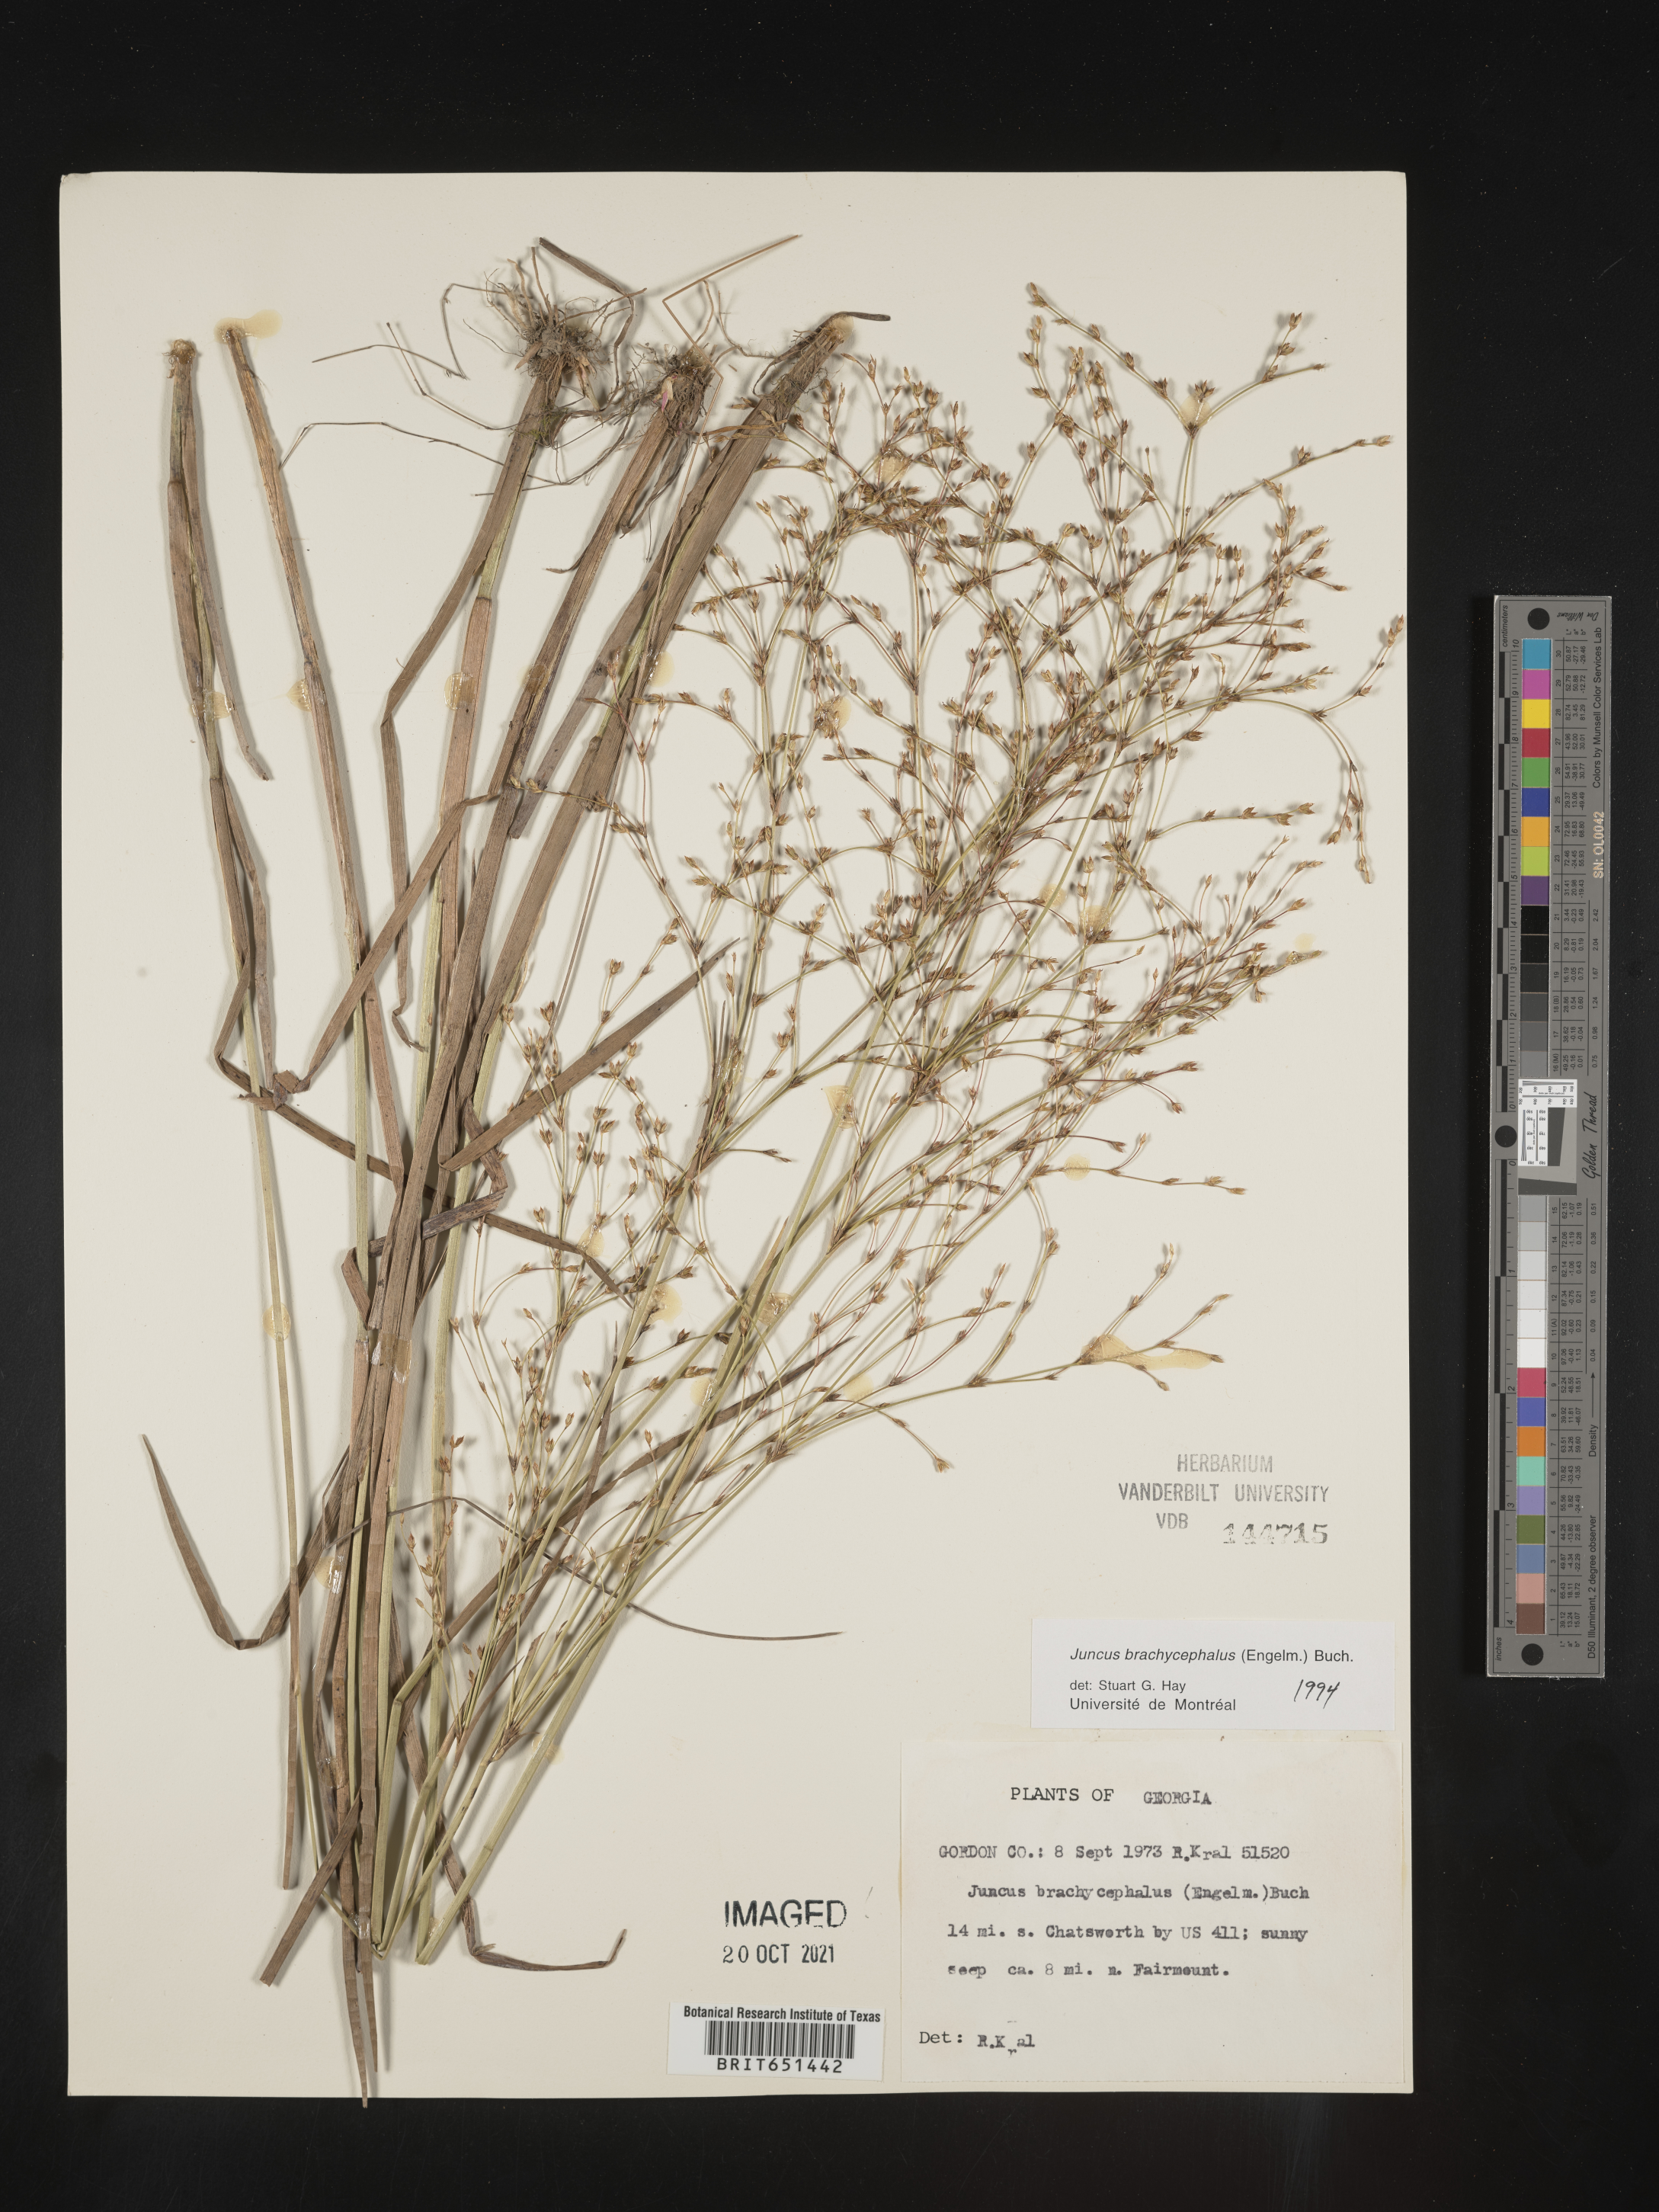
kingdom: Plantae
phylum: Tracheophyta
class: Liliopsida
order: Poales
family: Juncaceae
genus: Juncus
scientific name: Juncus brachycephalus
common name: Short-headed rush
